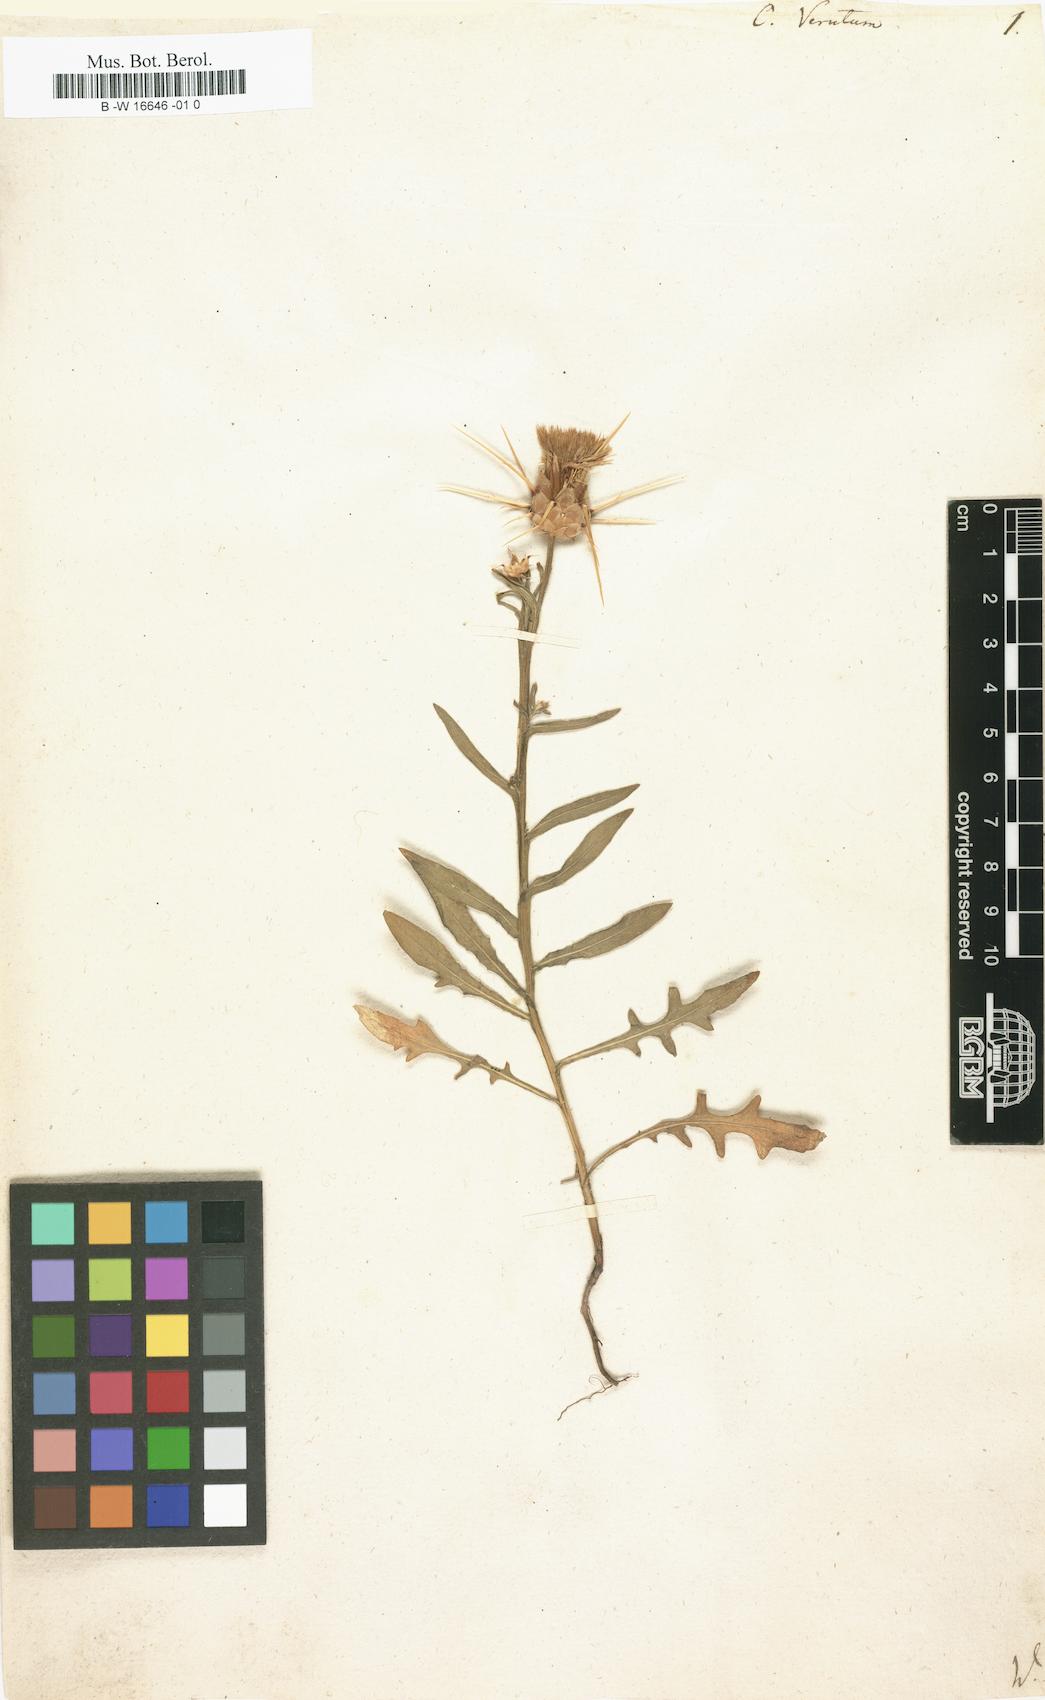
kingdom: Plantae
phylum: Tracheophyta
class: Magnoliopsida
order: Asterales
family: Asteraceae
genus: Centaurea
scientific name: Centaurea verutum
